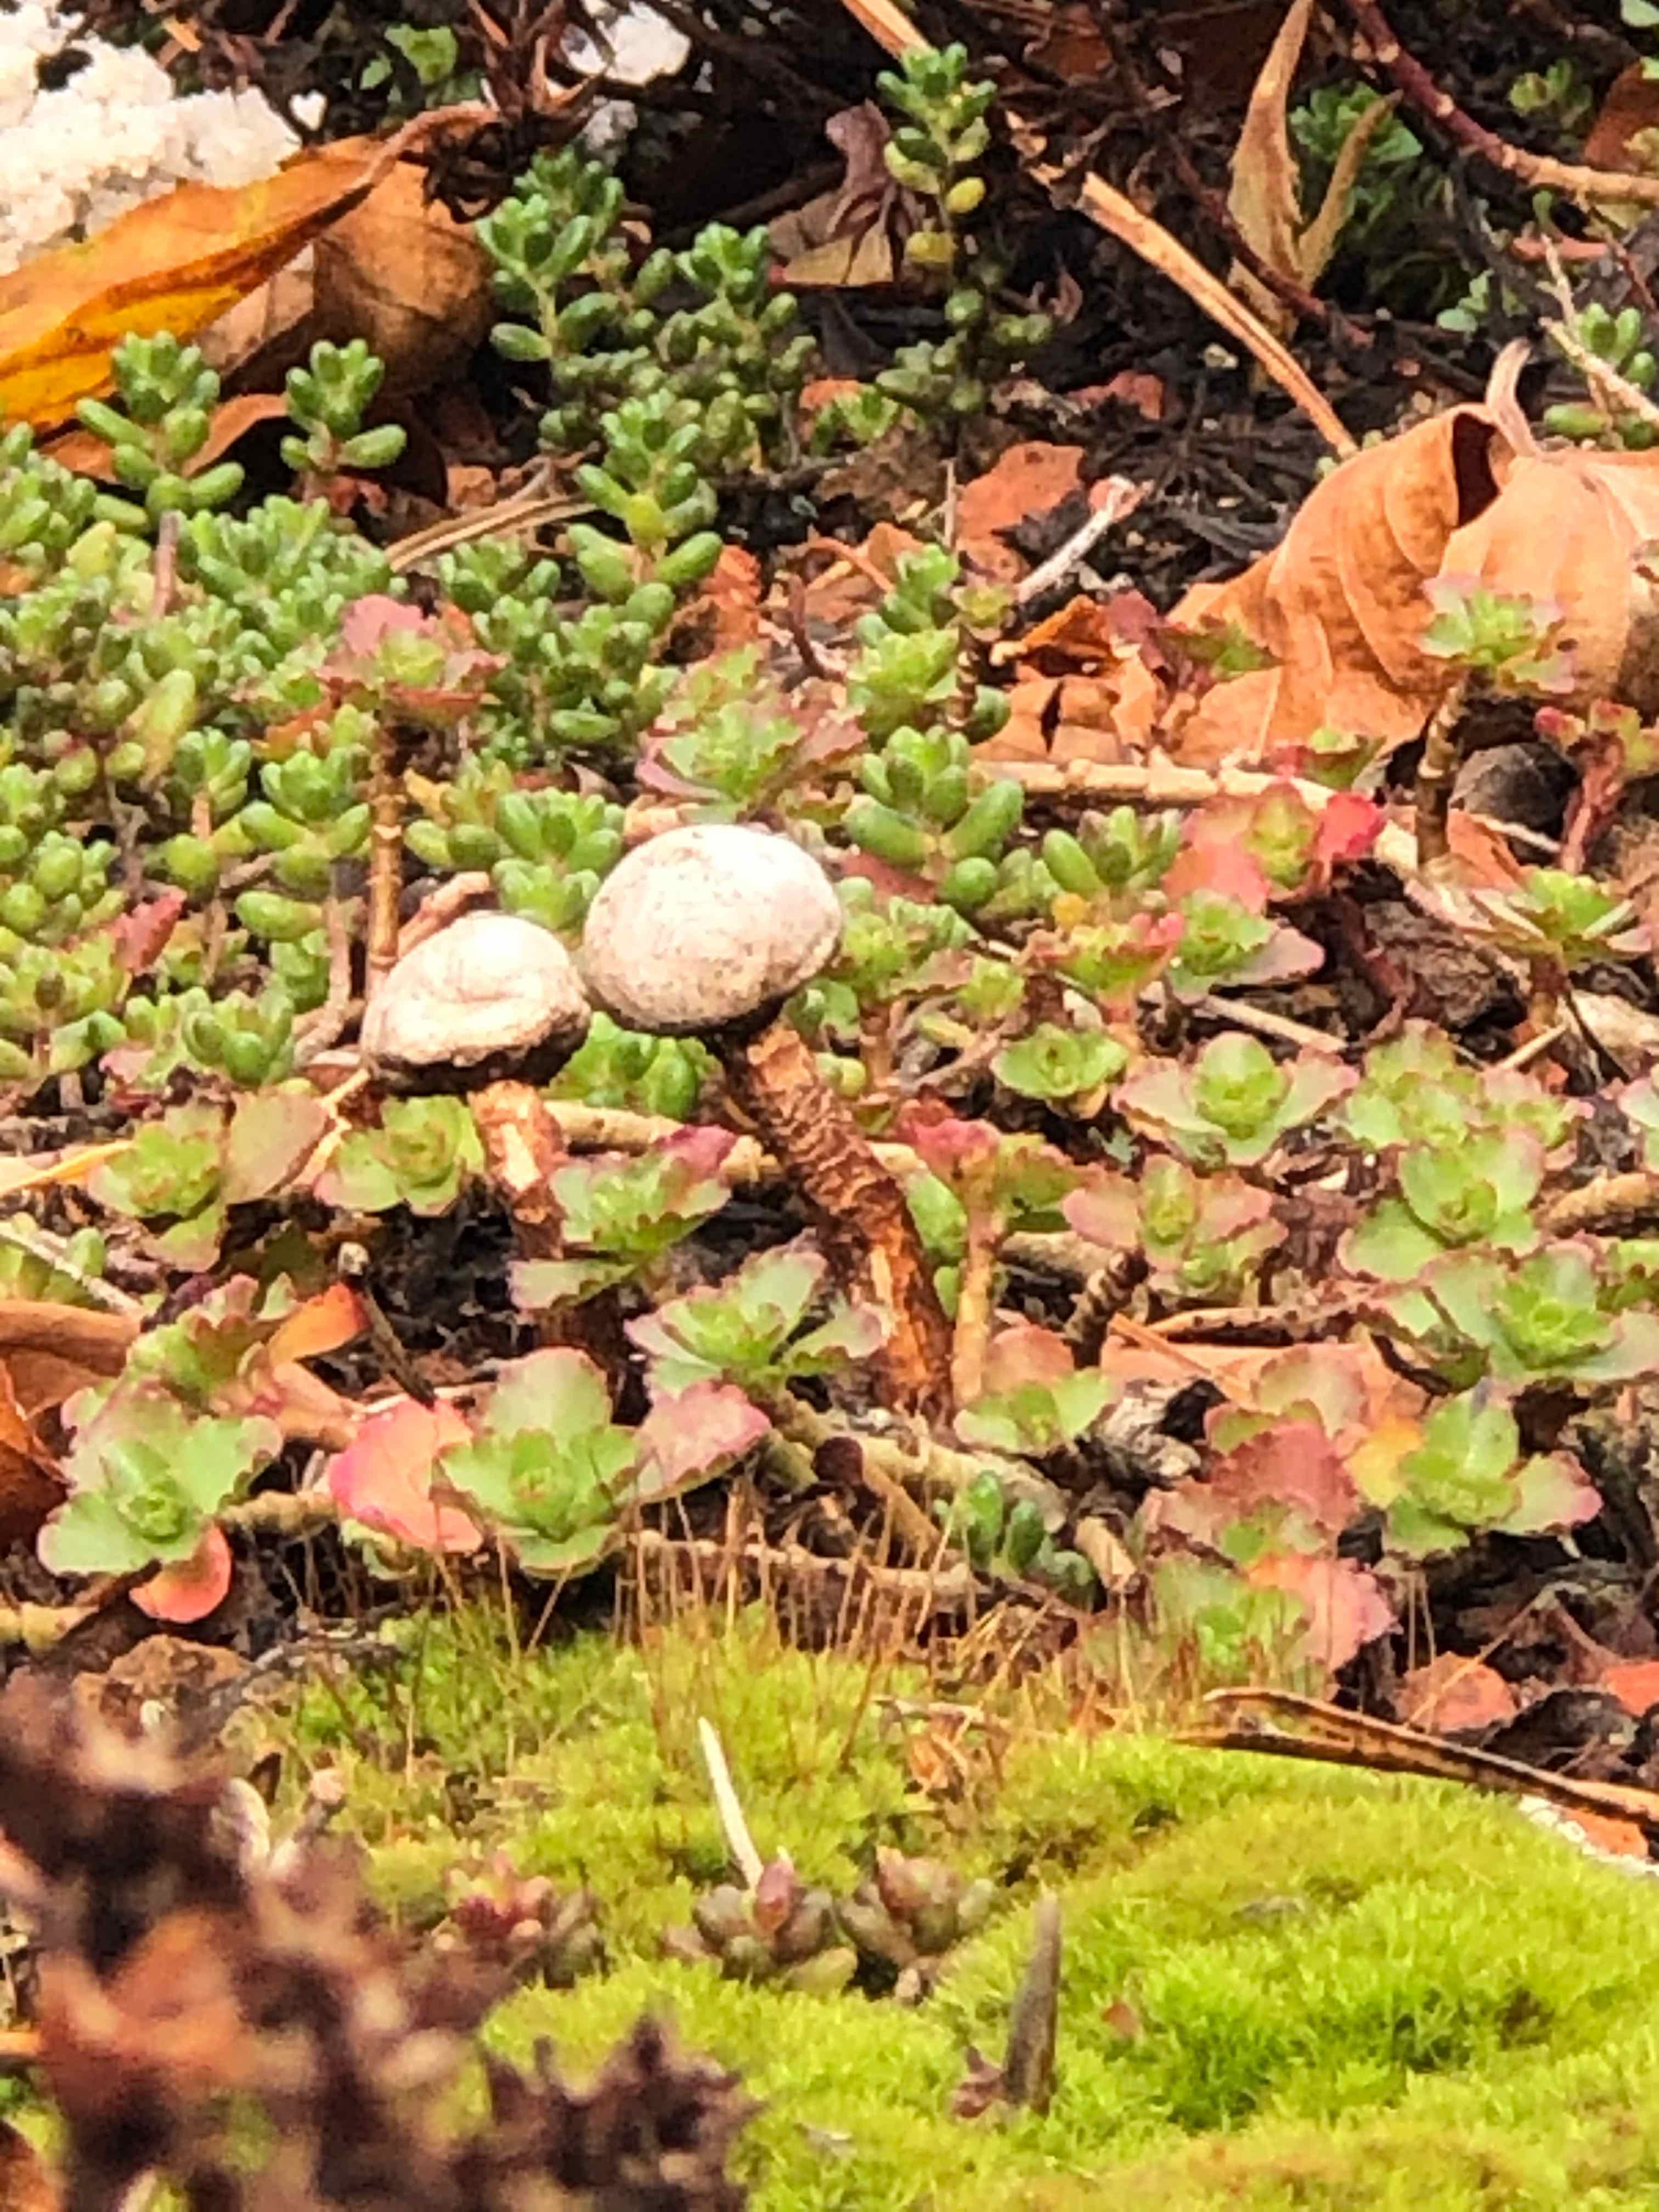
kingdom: Fungi
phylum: Basidiomycota
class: Agaricomycetes
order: Agaricales
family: Agaricaceae
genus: Tulostoma
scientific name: Tulostoma fimbriatum
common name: frynset stilkbovist
